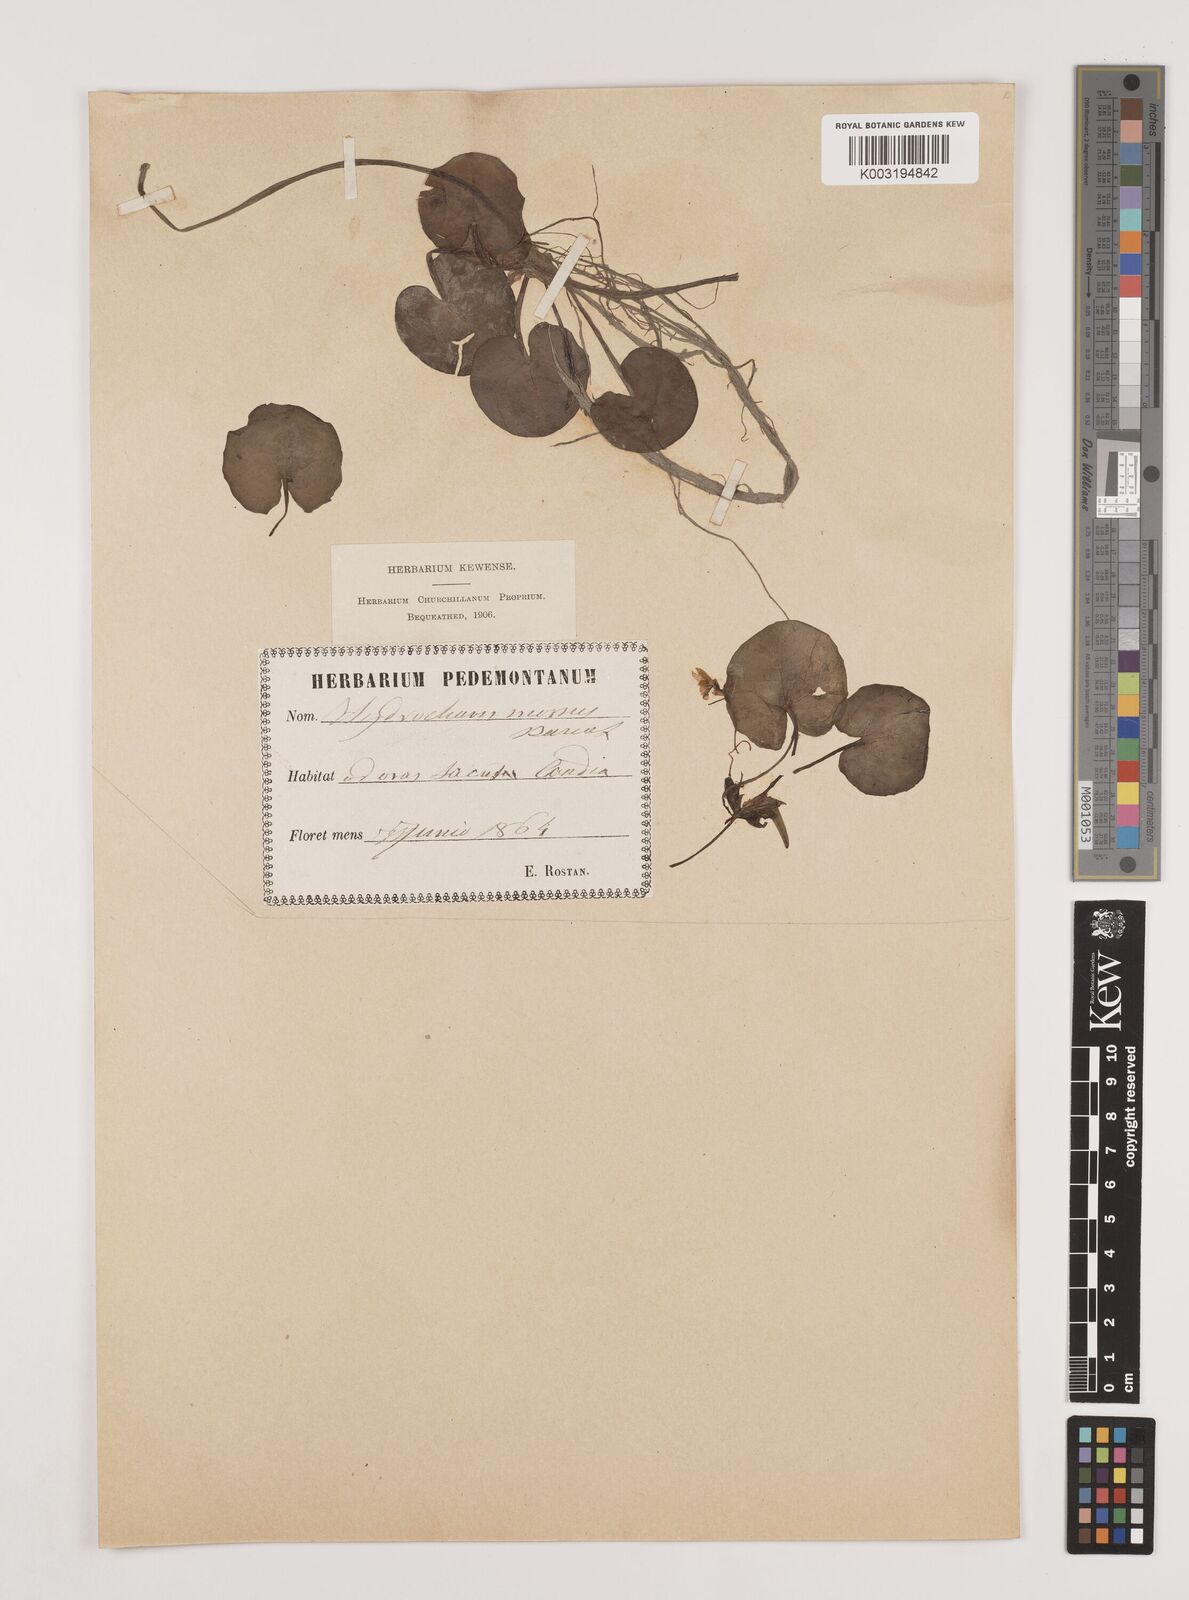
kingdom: Plantae
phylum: Tracheophyta
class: Liliopsida
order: Alismatales
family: Hydrocharitaceae
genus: Hydrocharis
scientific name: Hydrocharis morsus-ranae
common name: Frogbit
